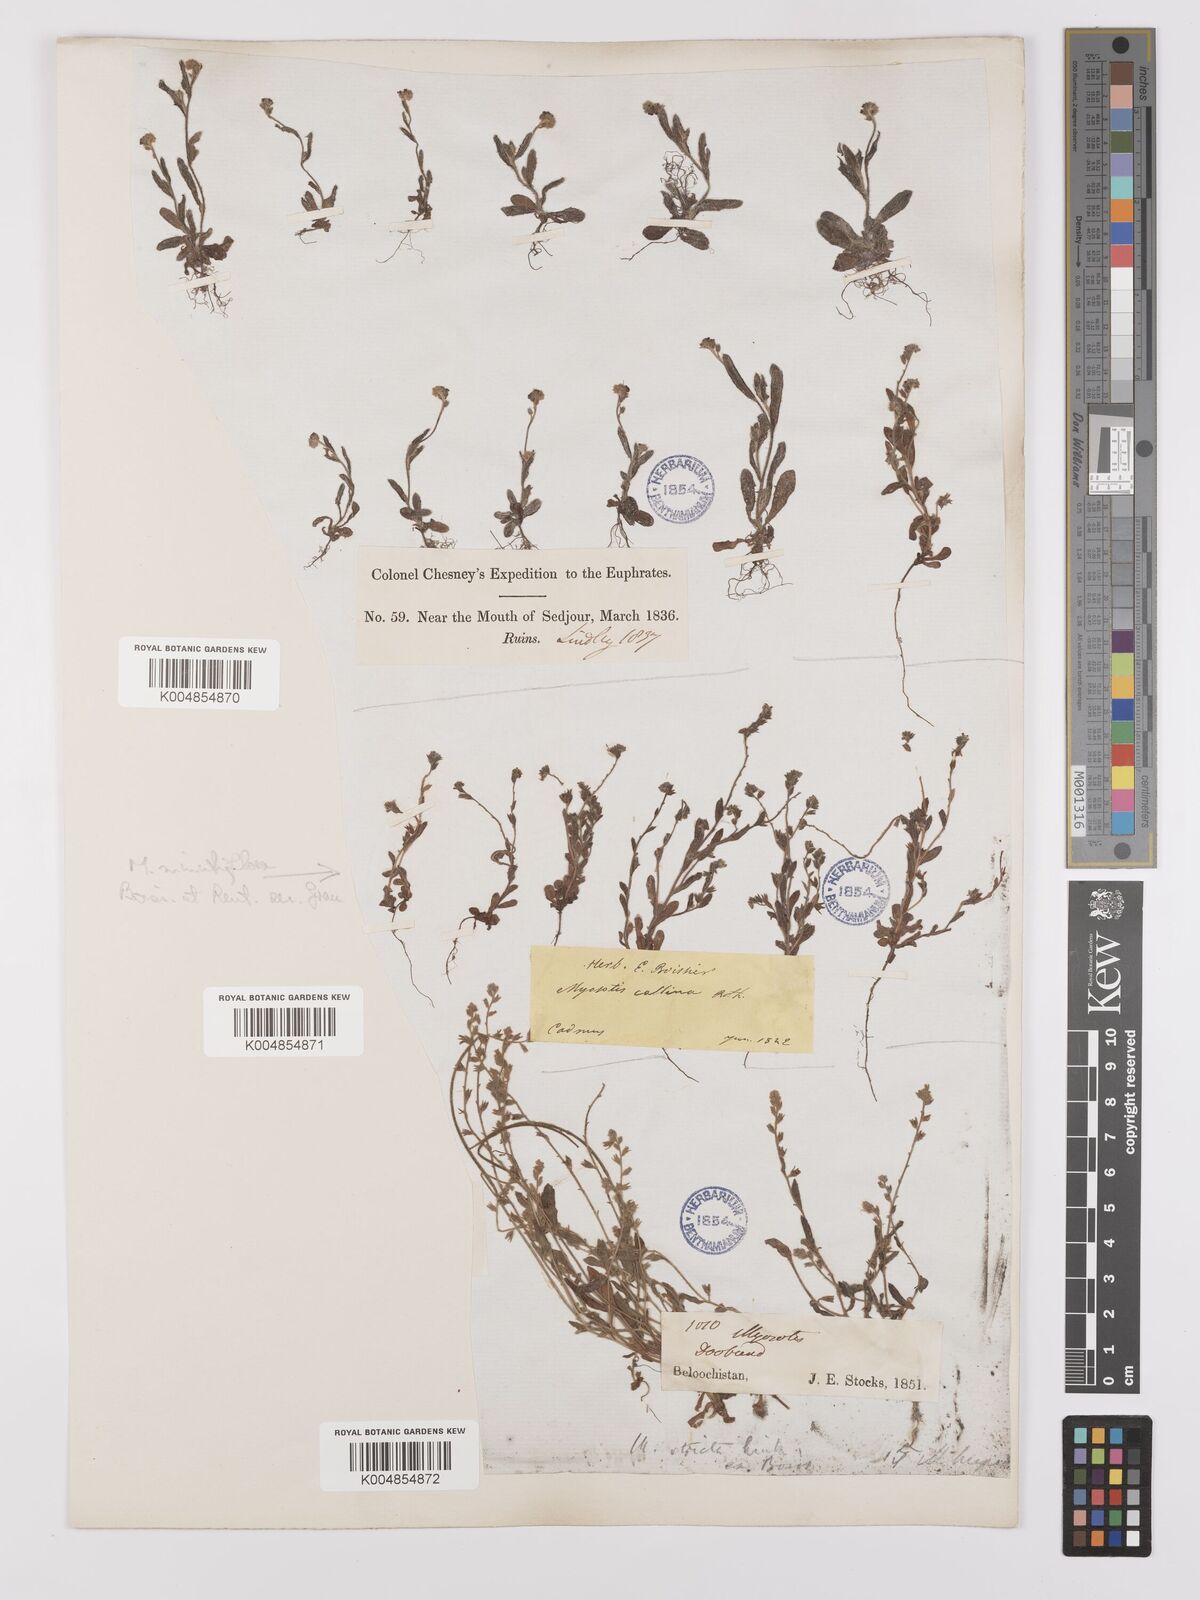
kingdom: Plantae
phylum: Tracheophyta
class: Magnoliopsida
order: Boraginales
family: Boraginaceae
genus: Myosotis
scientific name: Myosotis minutiflora
